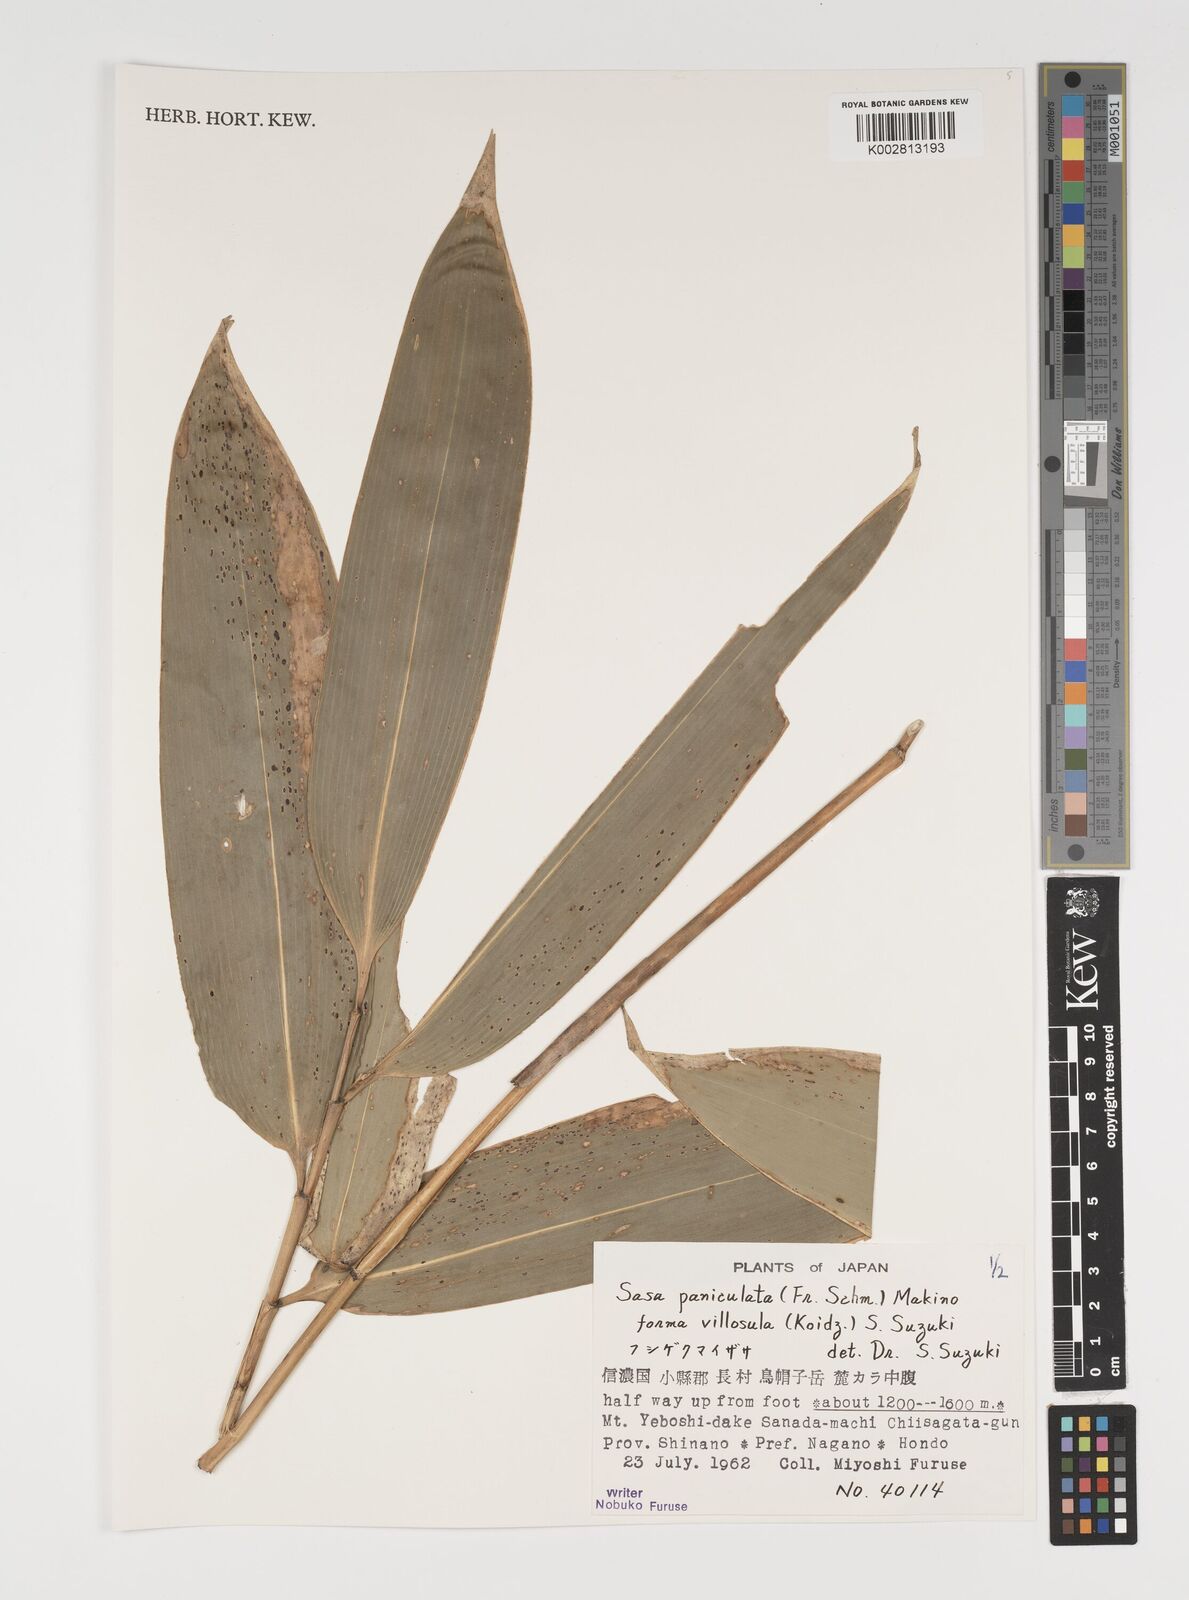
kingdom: Plantae
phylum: Tracheophyta
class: Liliopsida
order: Poales
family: Poaceae
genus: Sasa
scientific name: Sasa senanensis
